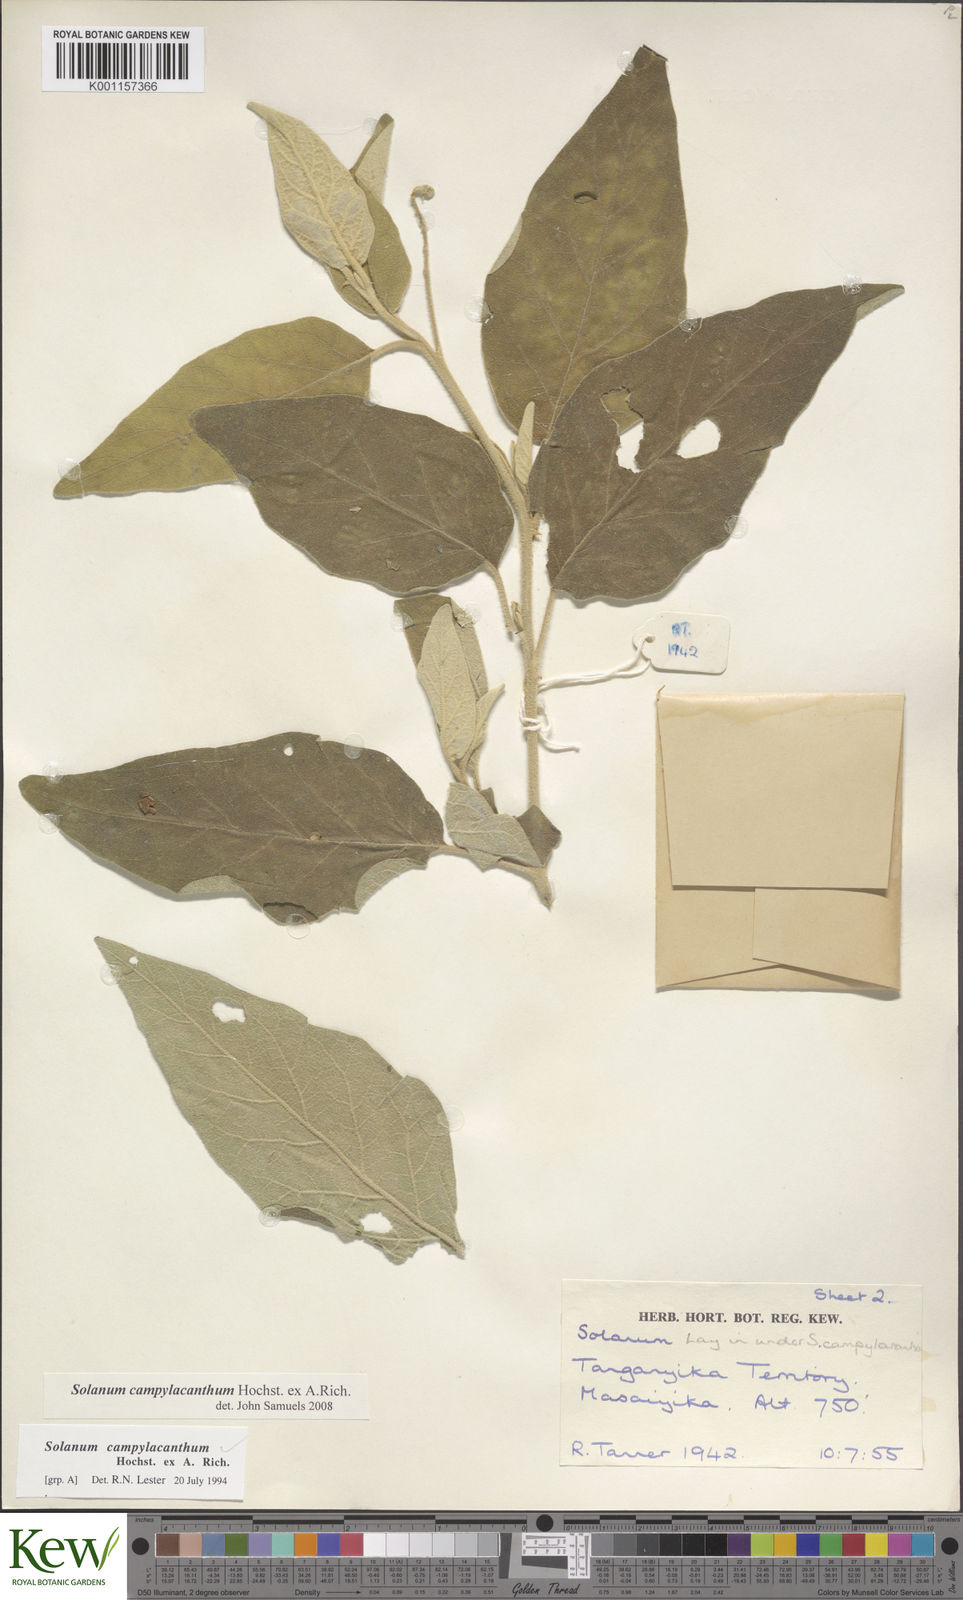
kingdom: Plantae
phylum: Tracheophyta
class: Magnoliopsida
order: Solanales
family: Solanaceae
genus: Solanum
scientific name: Solanum campylacanthum
